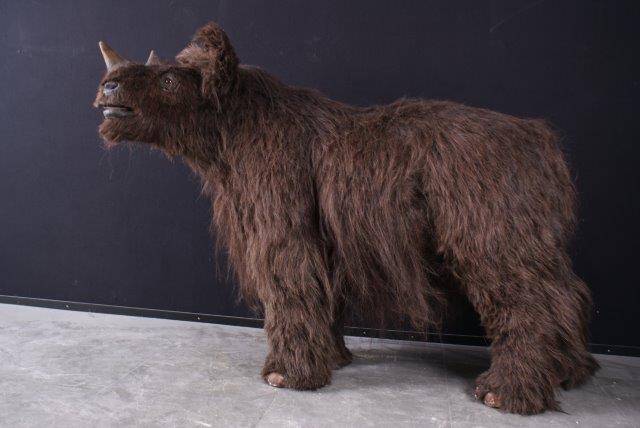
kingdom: Animalia
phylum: Chordata
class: Mammalia
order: Perissodactyla
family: Rhinocerotidae
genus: Coelodonta
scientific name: Coelodonta antiquitatis
